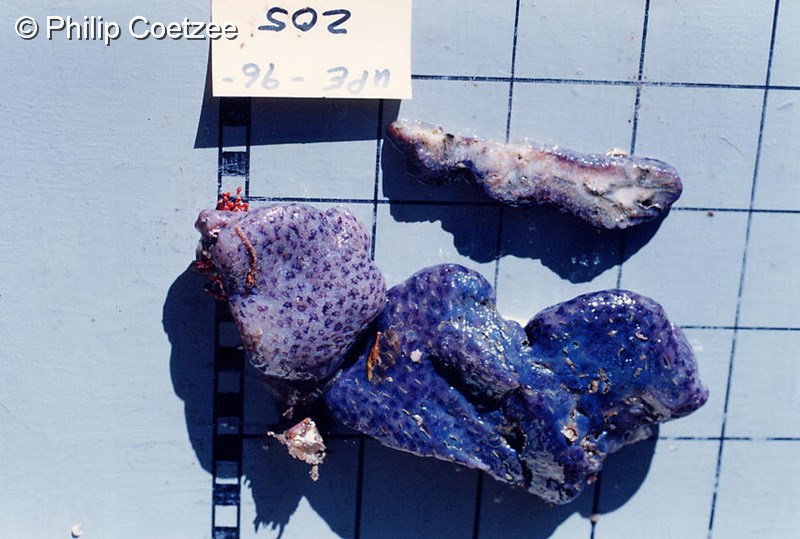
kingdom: Animalia
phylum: Chordata
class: Ascidiacea
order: Aplousobranchia
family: Holozoidae
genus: Distaplia
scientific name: Distaplia skoogi
